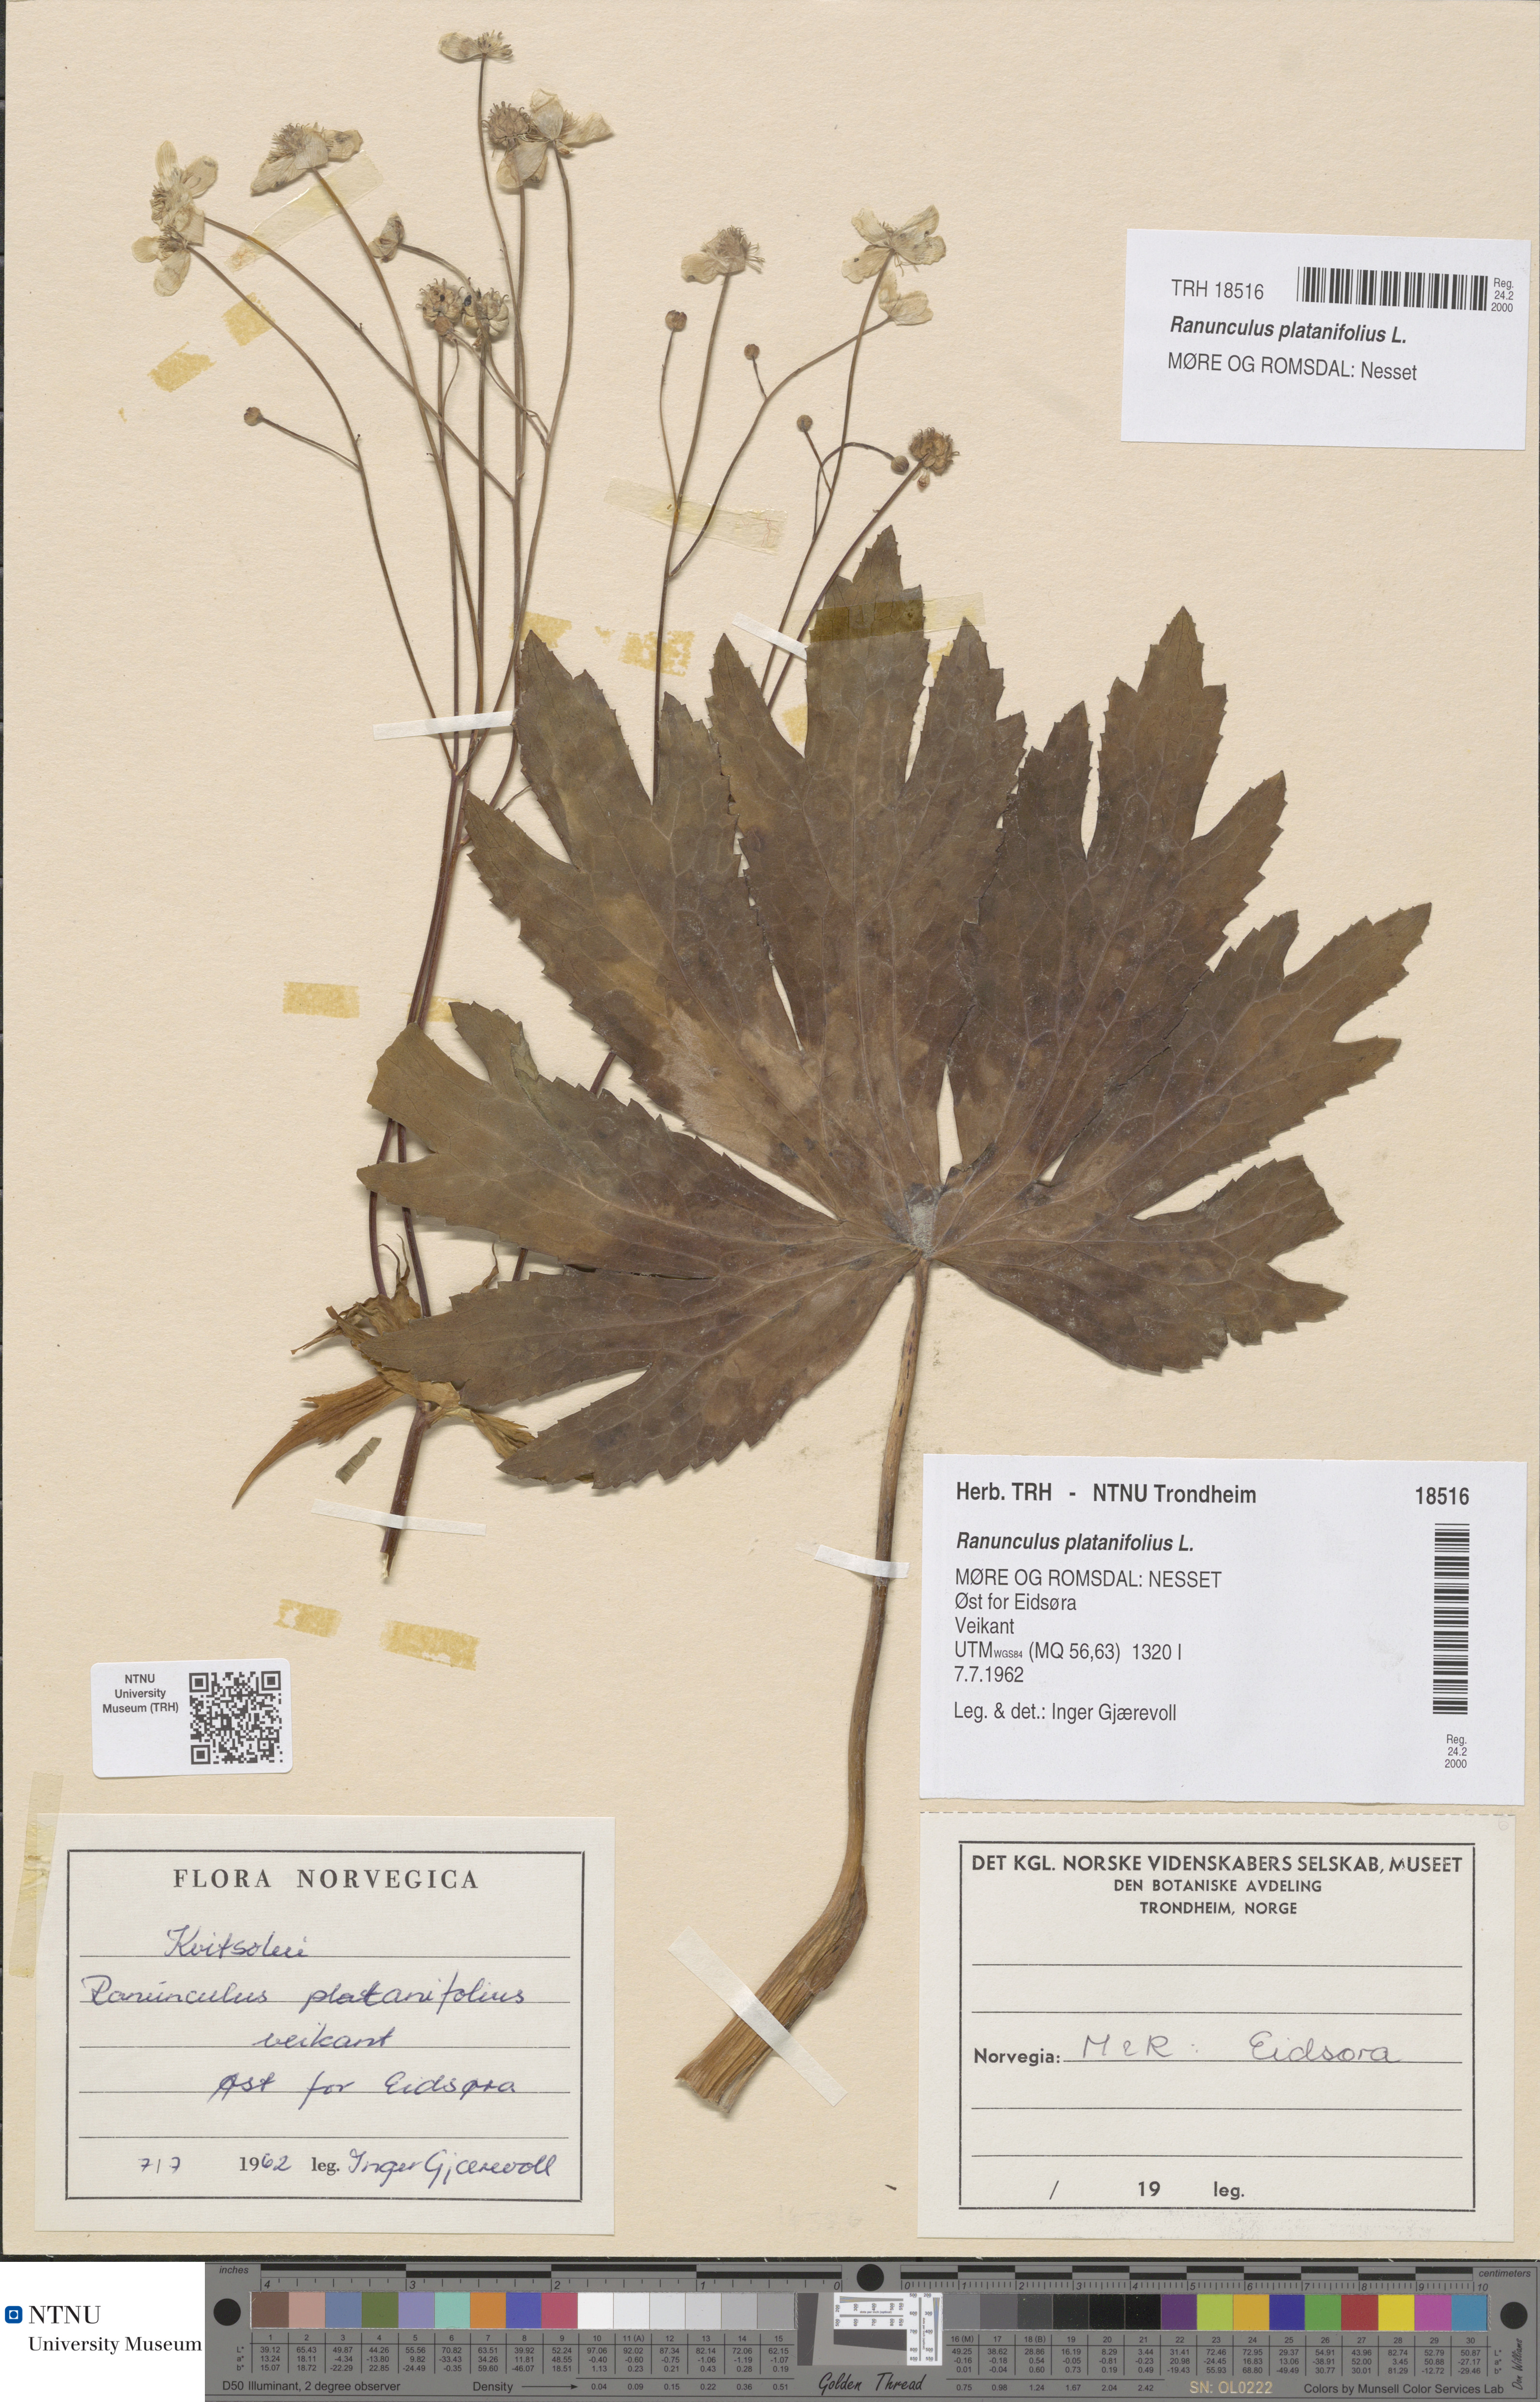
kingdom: Plantae
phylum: Tracheophyta
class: Magnoliopsida
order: Ranunculales
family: Ranunculaceae
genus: Ranunculus
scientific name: Ranunculus platanifolius
